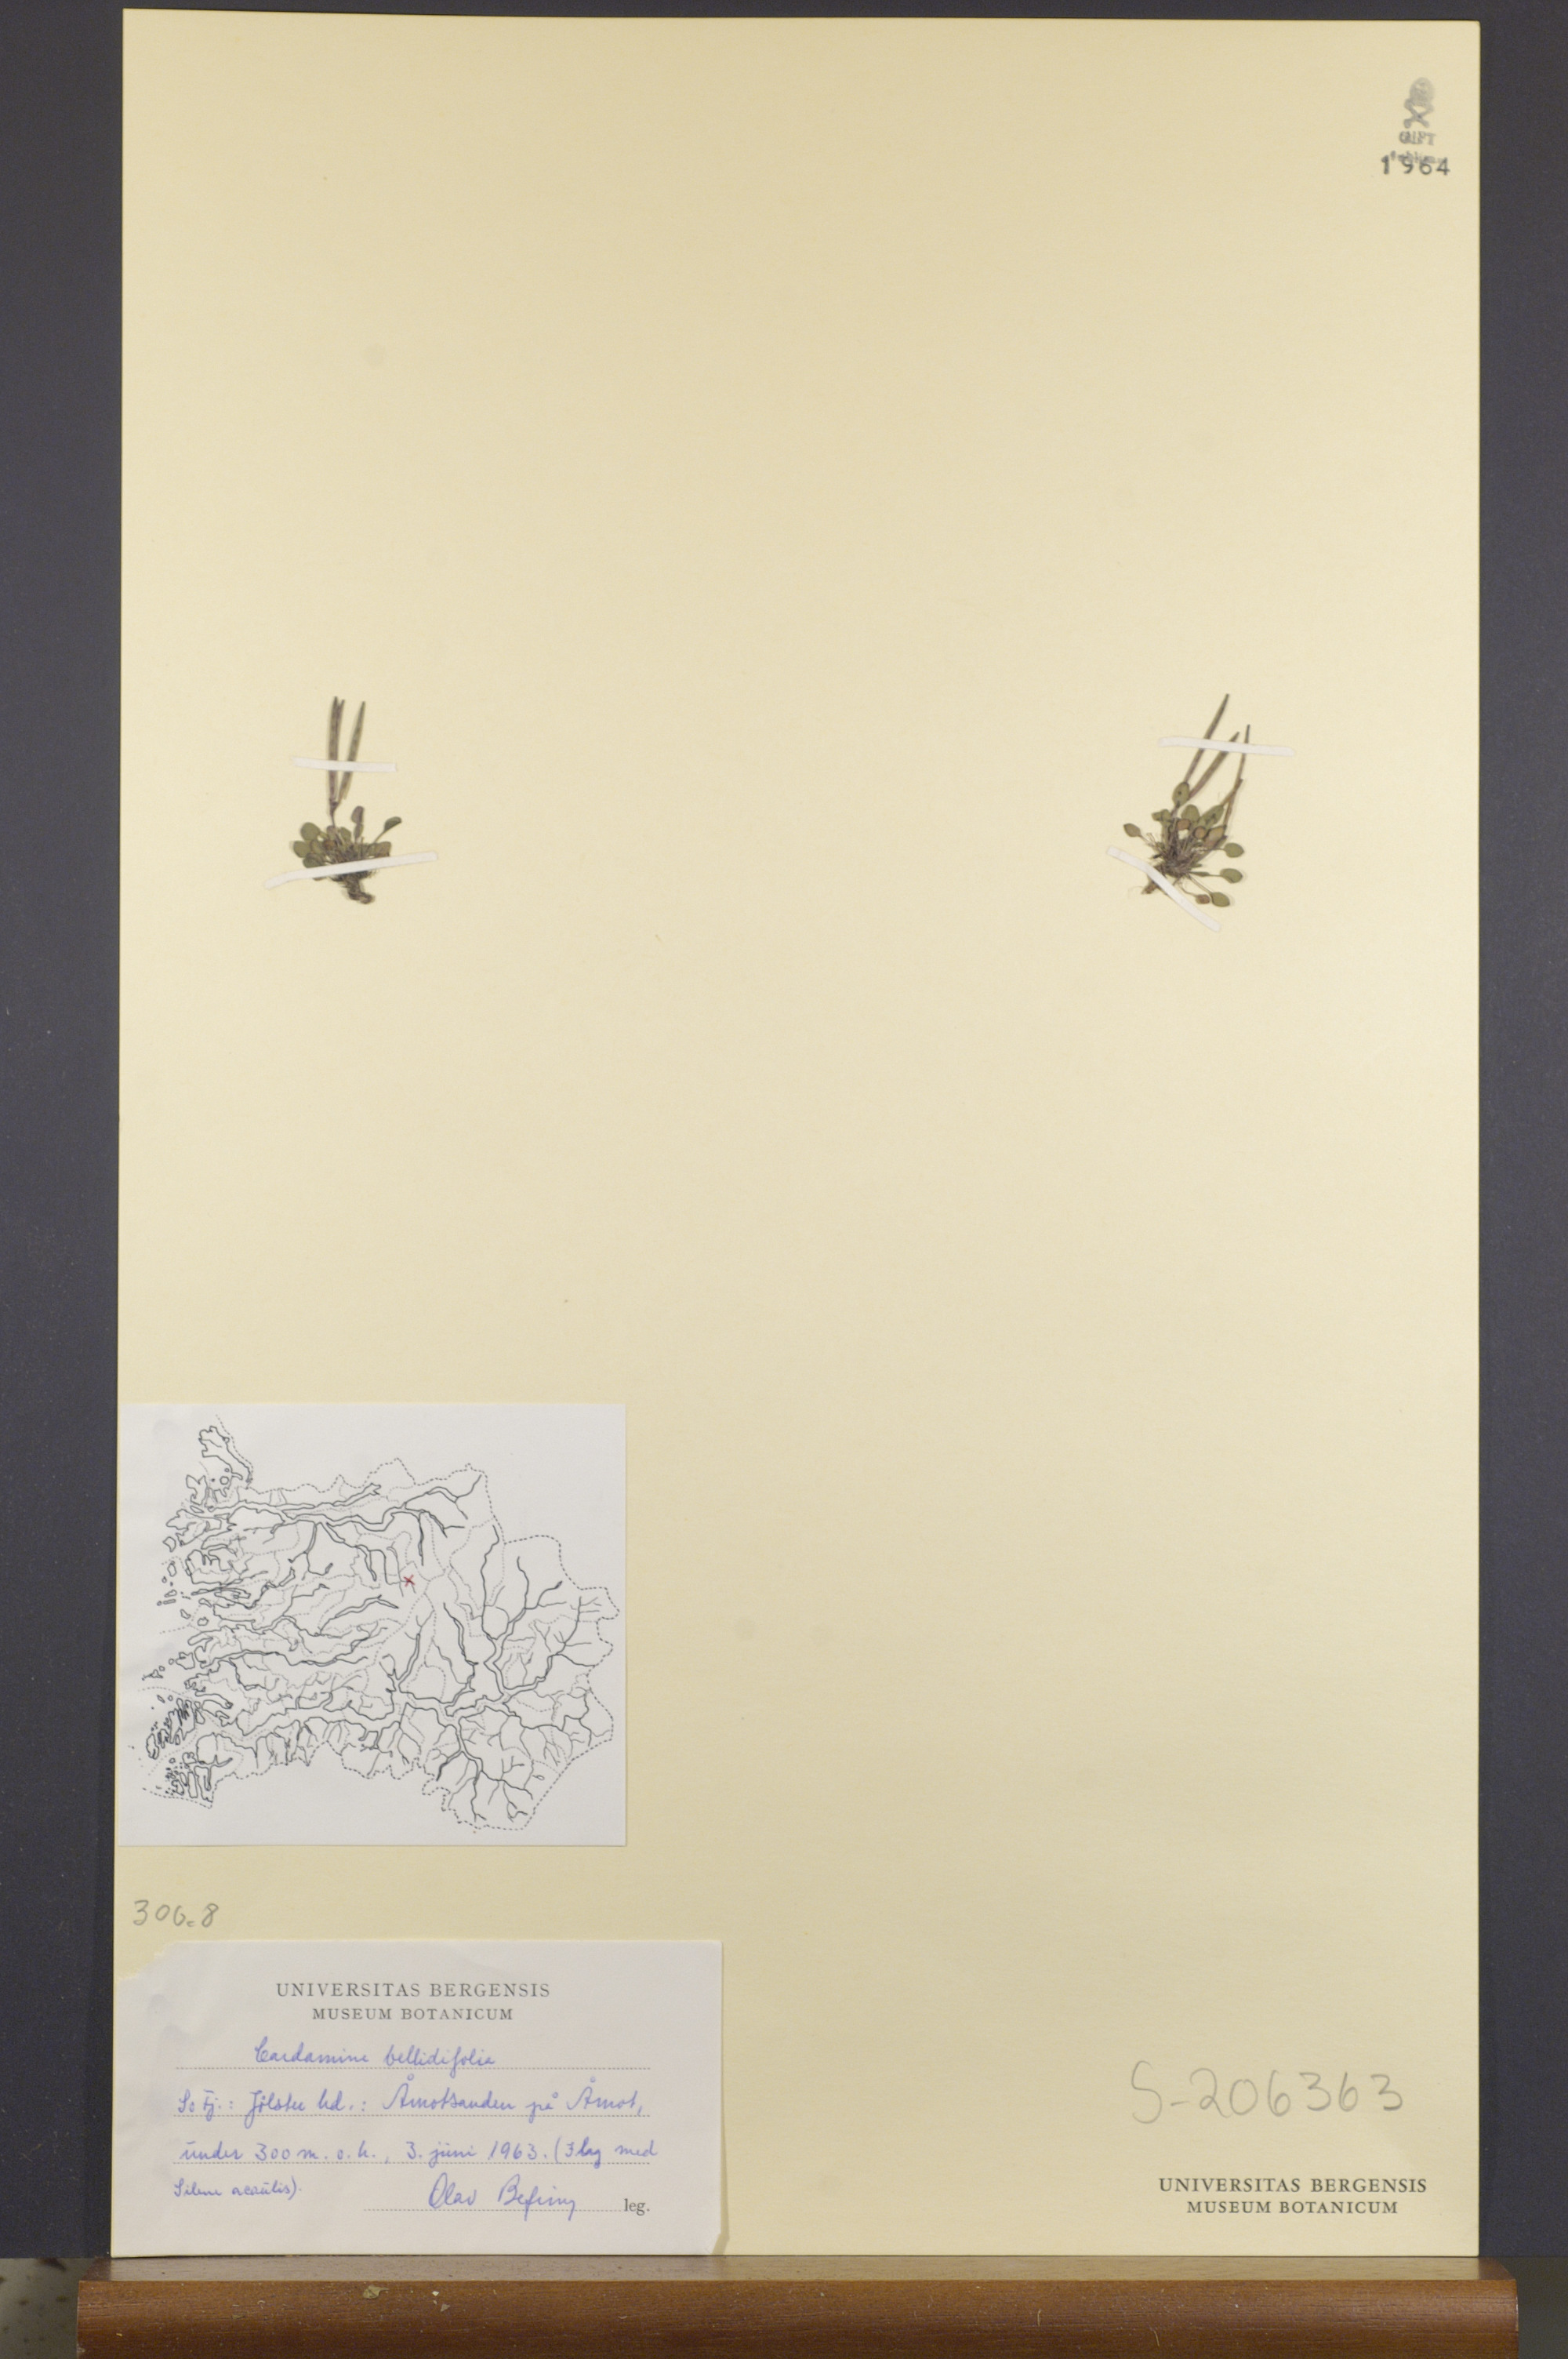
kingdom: Plantae
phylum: Tracheophyta
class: Magnoliopsida
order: Brassicales
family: Brassicaceae
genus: Cardamine
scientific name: Cardamine bellidifolia
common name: Alpine bittercress
